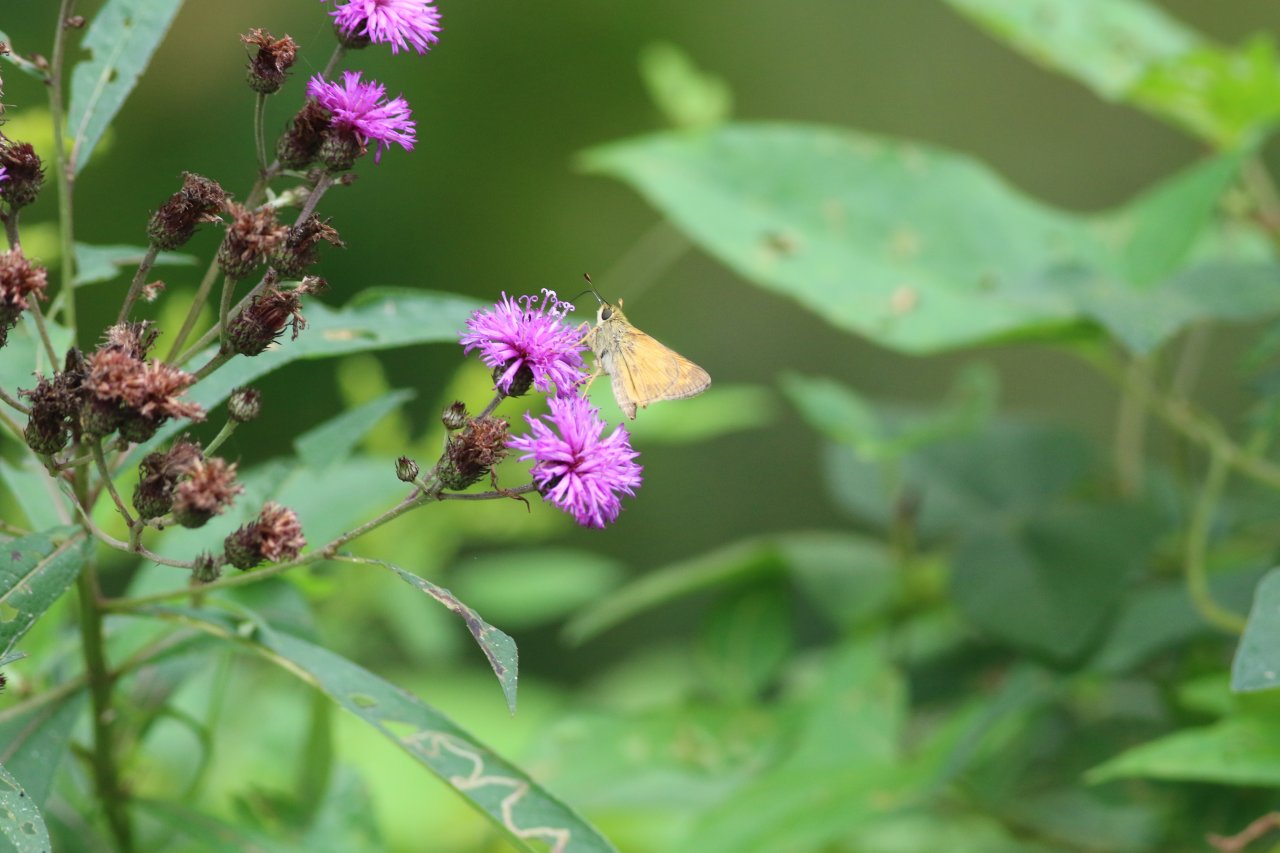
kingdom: Animalia
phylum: Arthropoda
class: Insecta
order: Lepidoptera
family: Hesperiidae
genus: Atalopedes
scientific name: Atalopedes campestris
